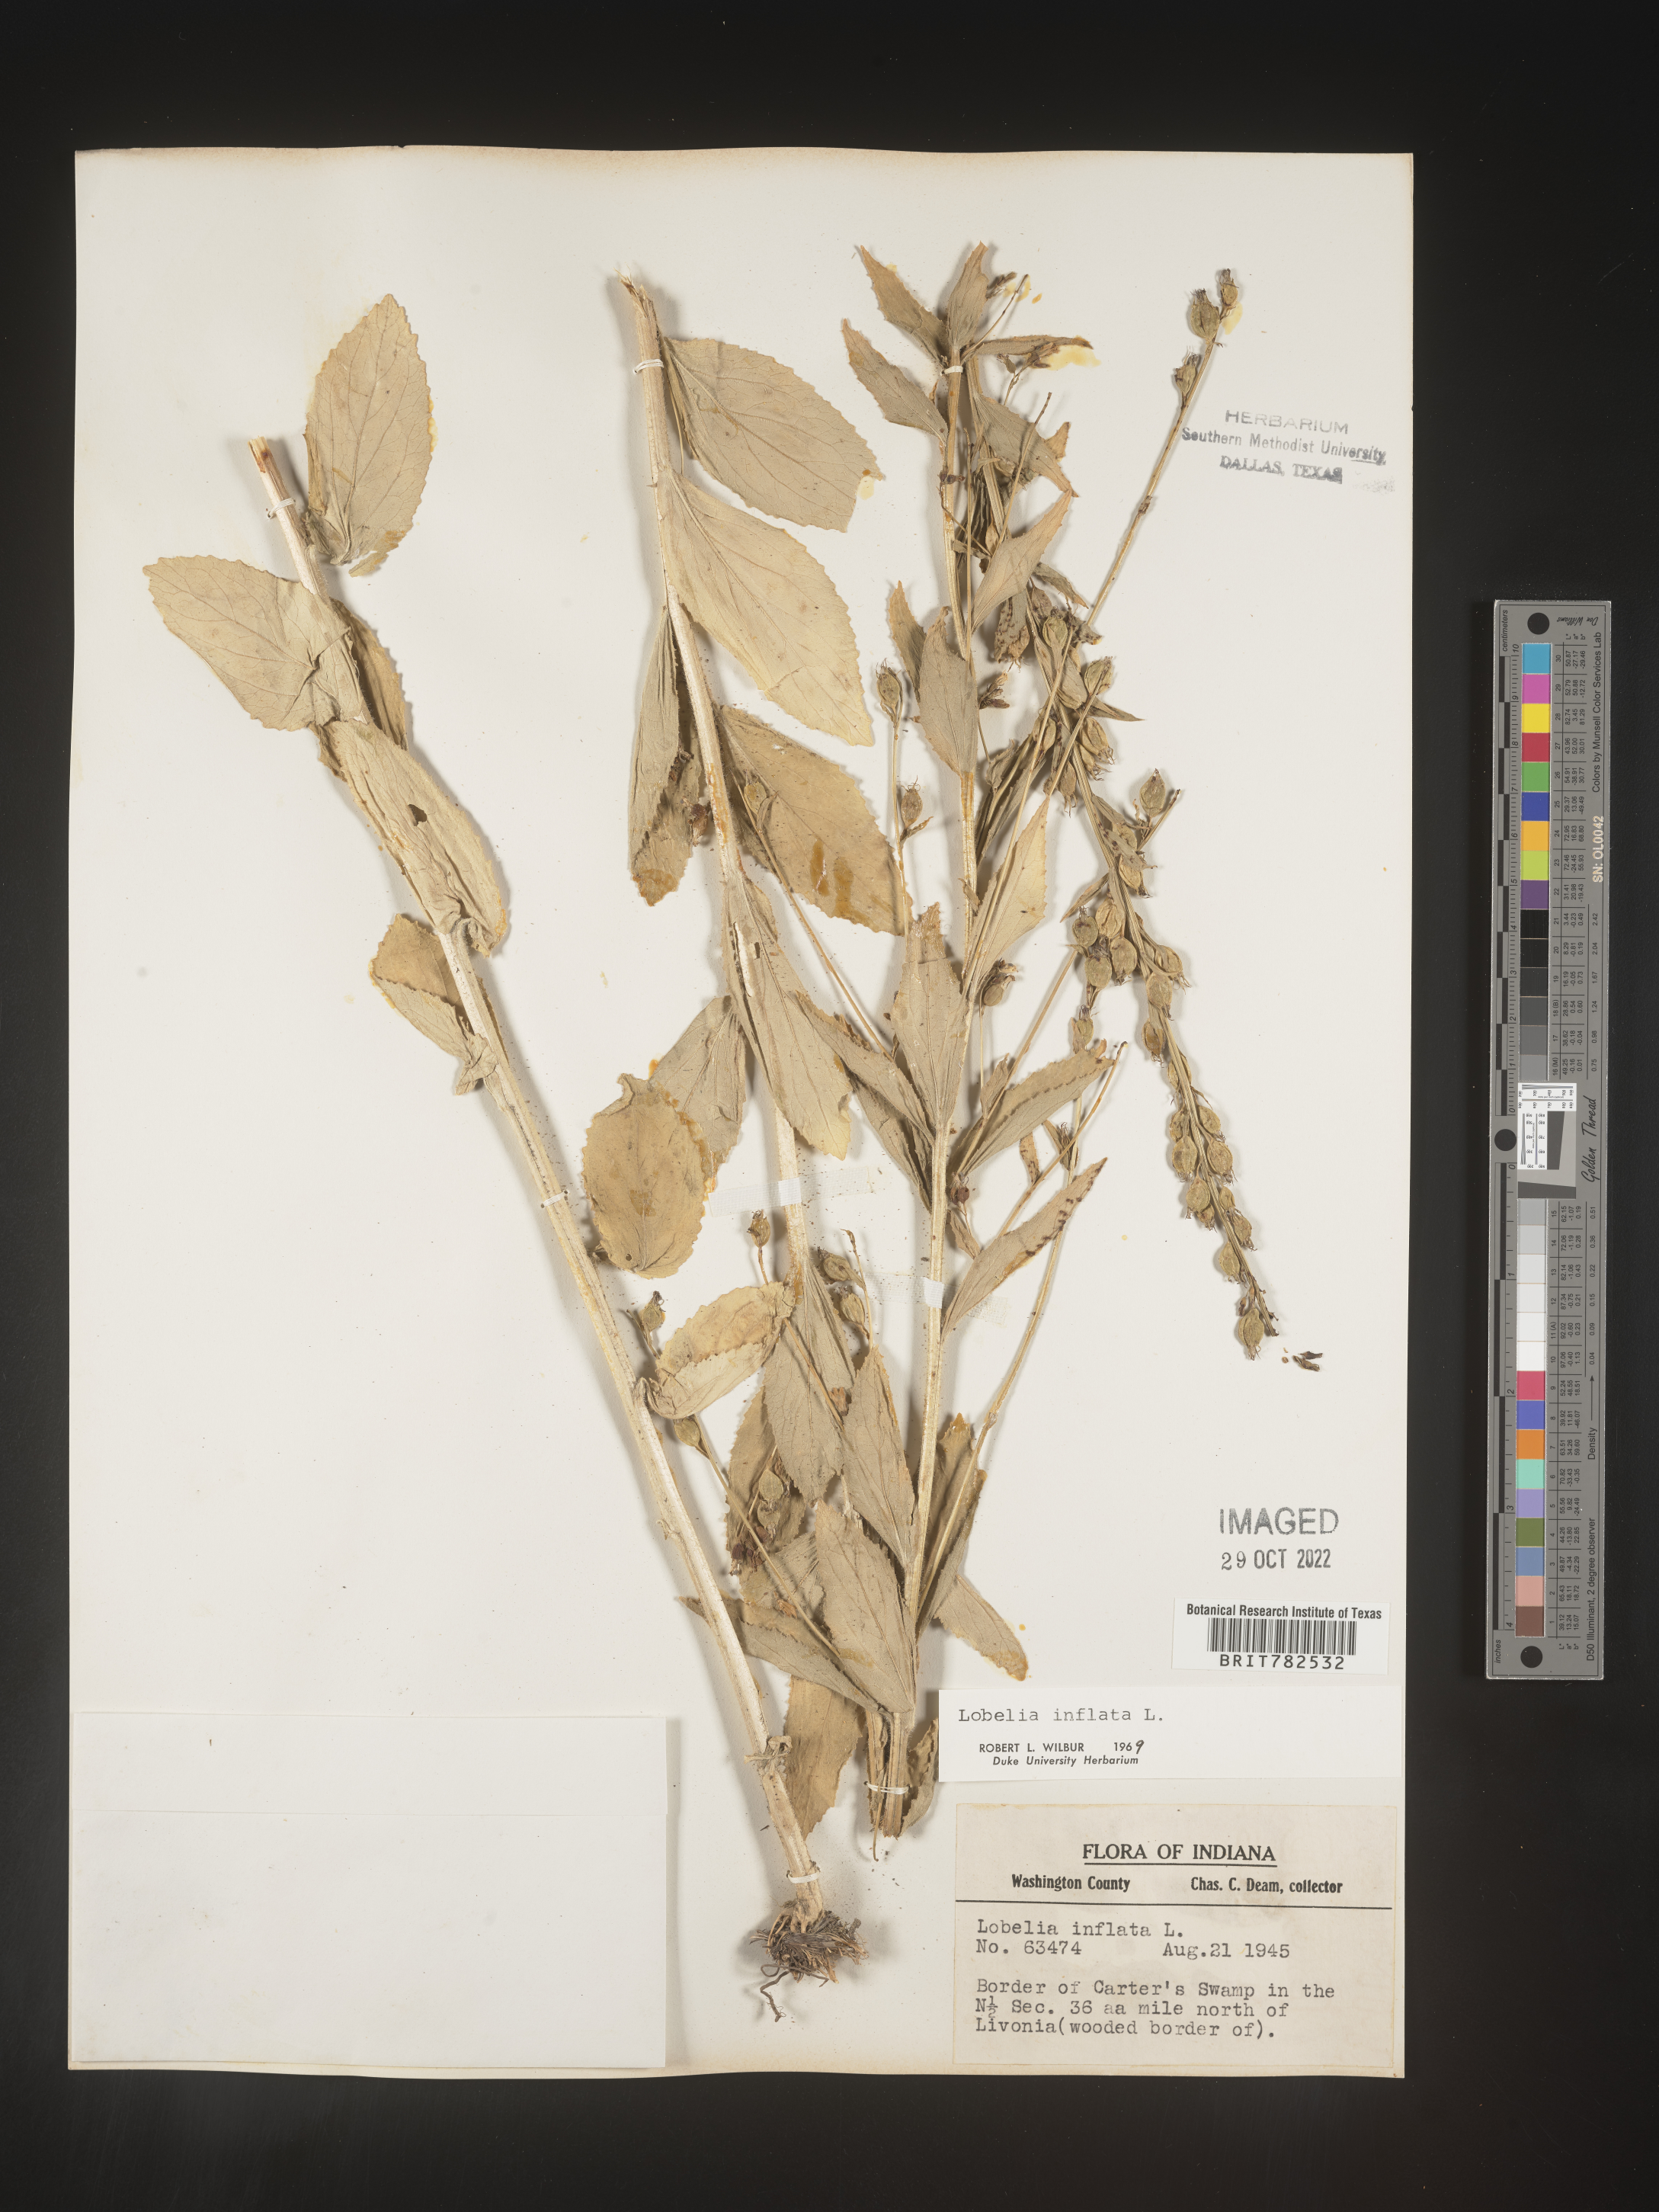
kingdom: Plantae
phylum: Tracheophyta
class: Magnoliopsida
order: Asterales
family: Campanulaceae
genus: Lobelia
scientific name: Lobelia inflata
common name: Indian tobacco
